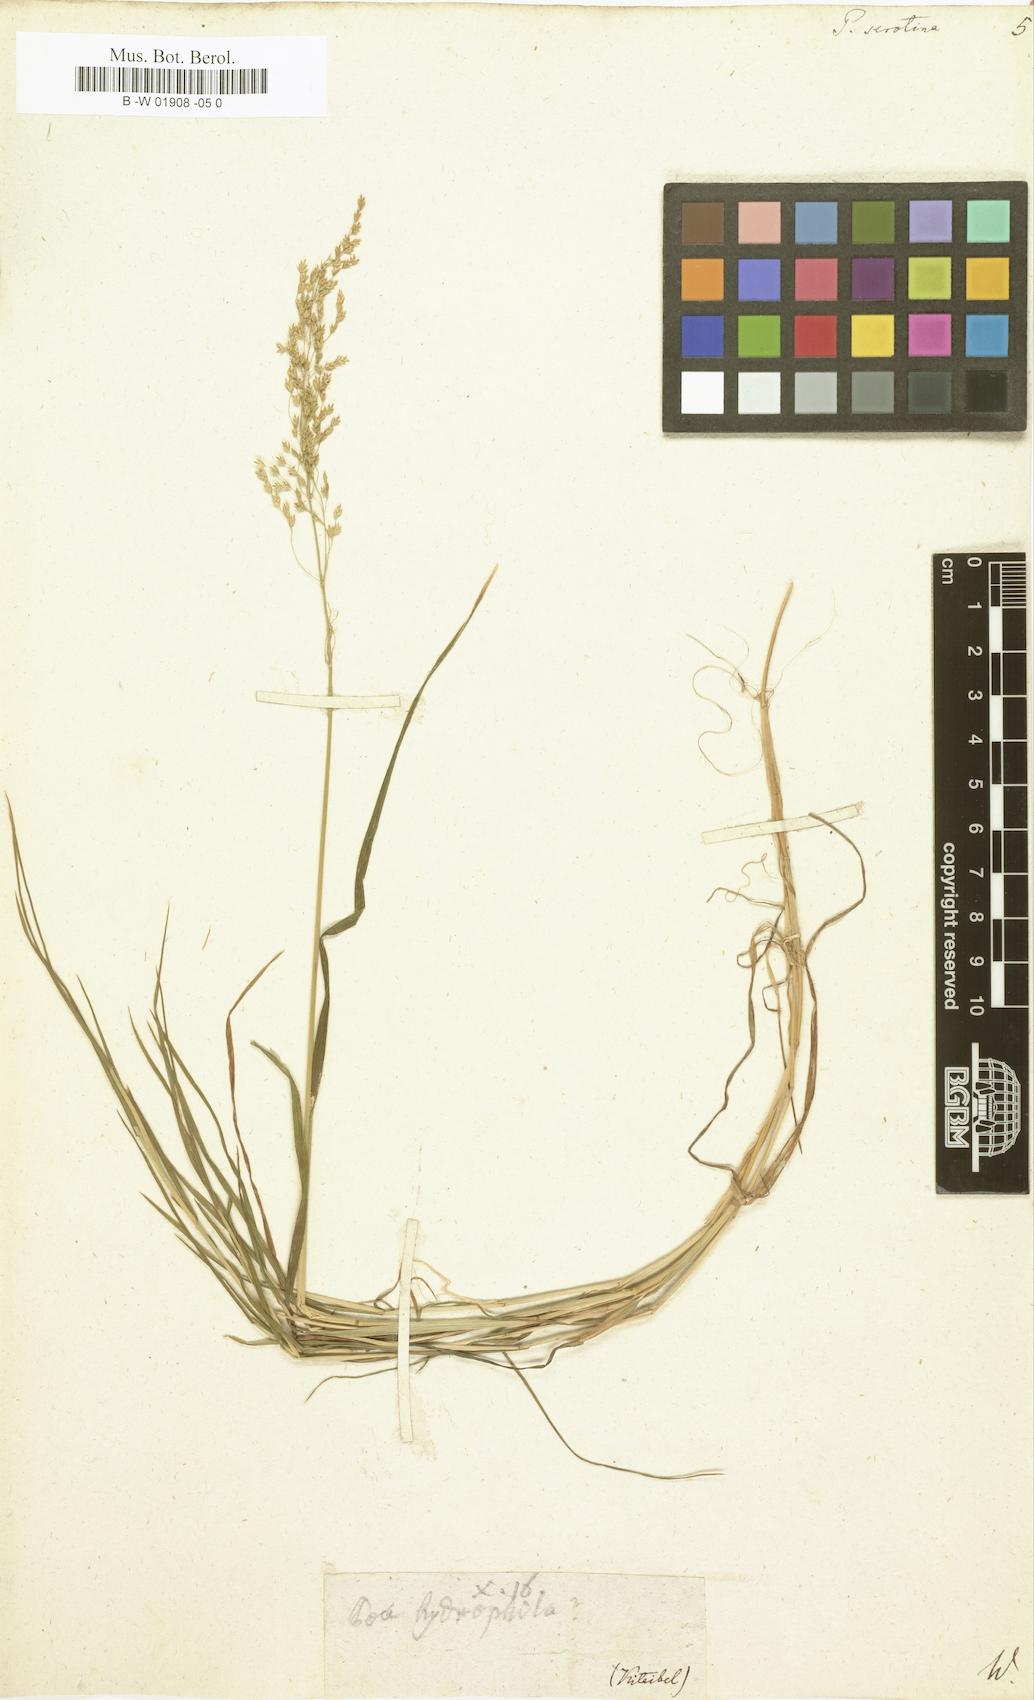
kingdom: Plantae
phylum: Tracheophyta
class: Liliopsida
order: Poales
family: Poaceae
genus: Poa
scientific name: Poa serotina
